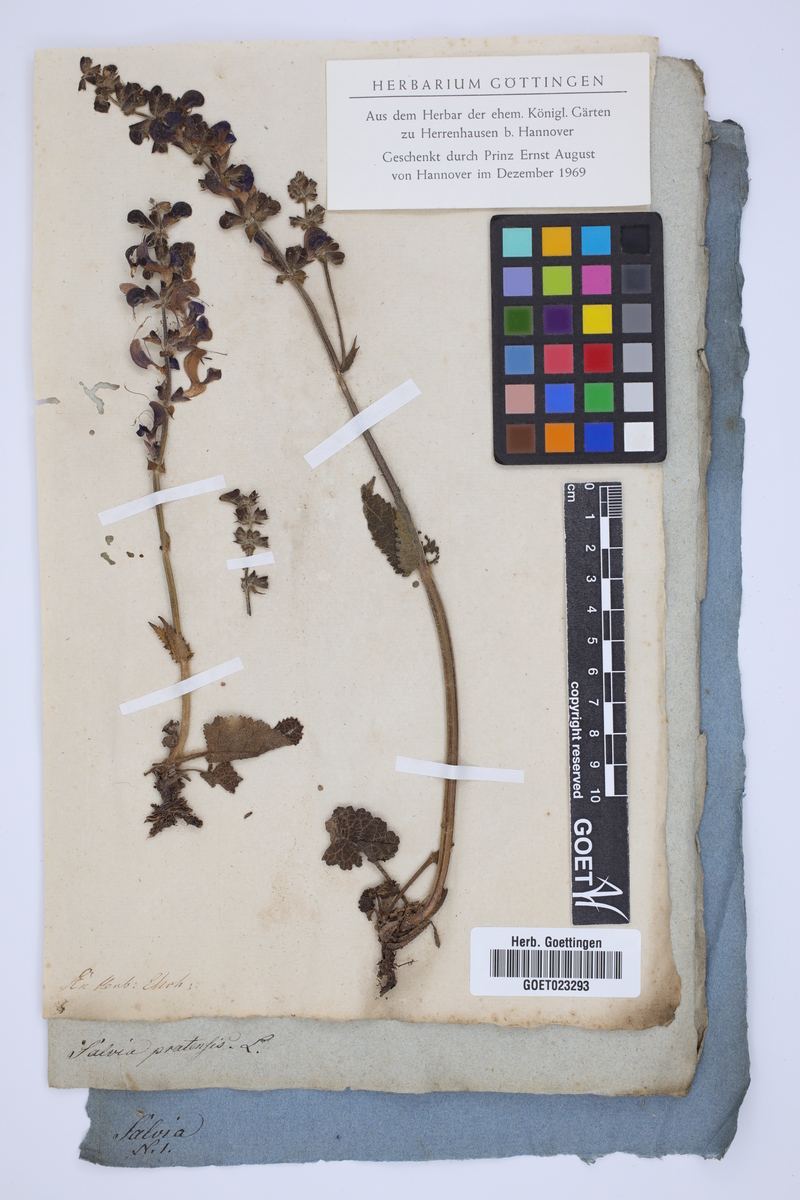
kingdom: Plantae
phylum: Tracheophyta
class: Magnoliopsida
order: Lamiales
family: Lamiaceae
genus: Salvia
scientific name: Salvia pratensis
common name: Meadow sage
